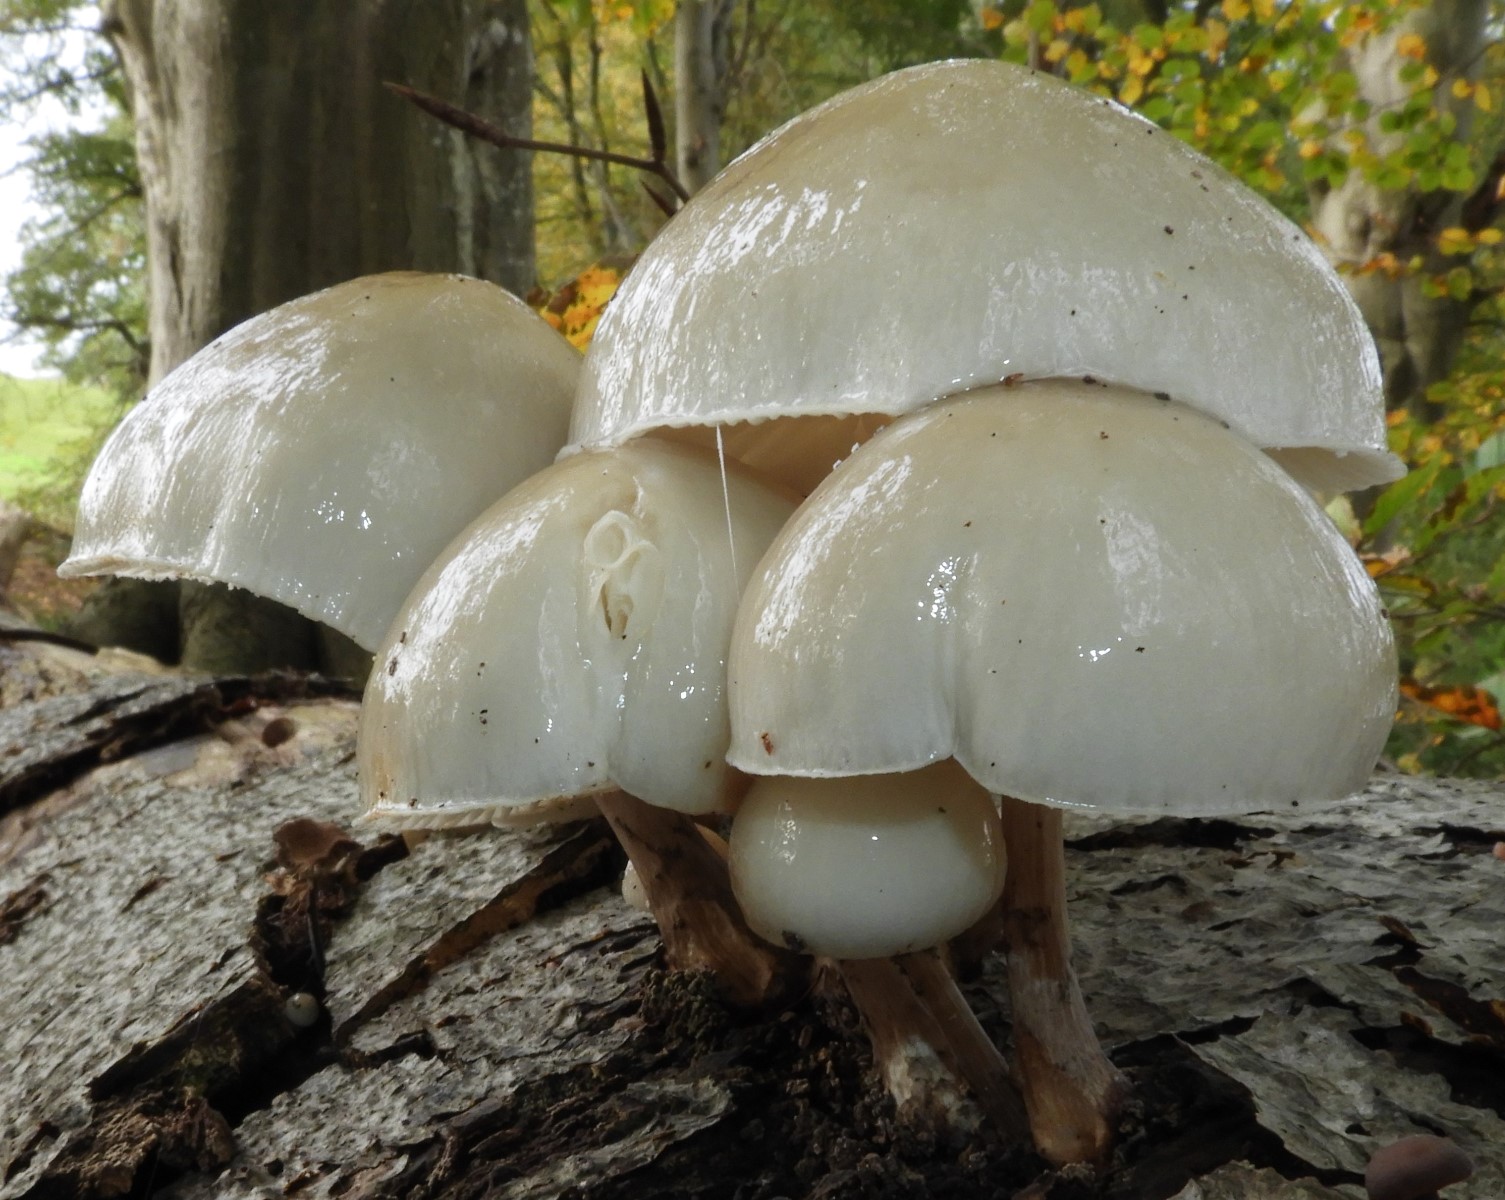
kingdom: Fungi
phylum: Basidiomycota
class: Agaricomycetes
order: Agaricales
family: Physalacriaceae
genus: Mucidula
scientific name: Mucidula mucida
